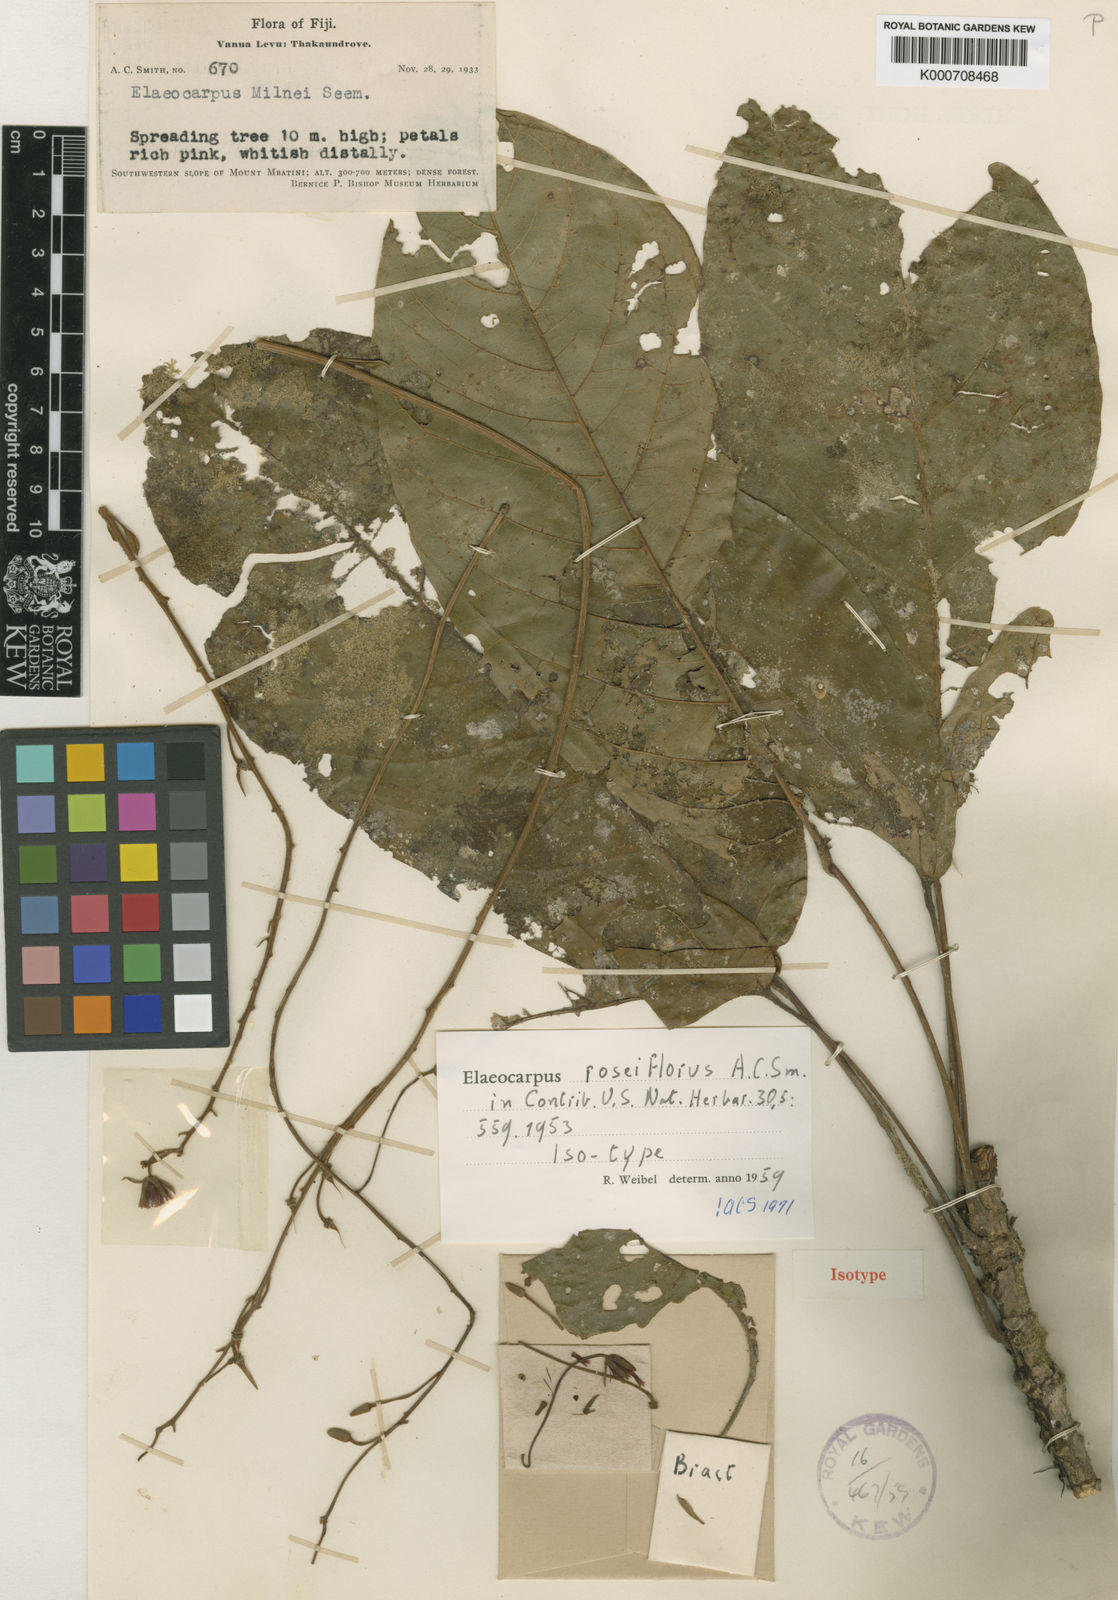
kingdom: Plantae
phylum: Tracheophyta
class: Magnoliopsida
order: Oxalidales
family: Elaeocarpaceae
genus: Elaeocarpus
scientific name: Elaeocarpus roseiflorus
